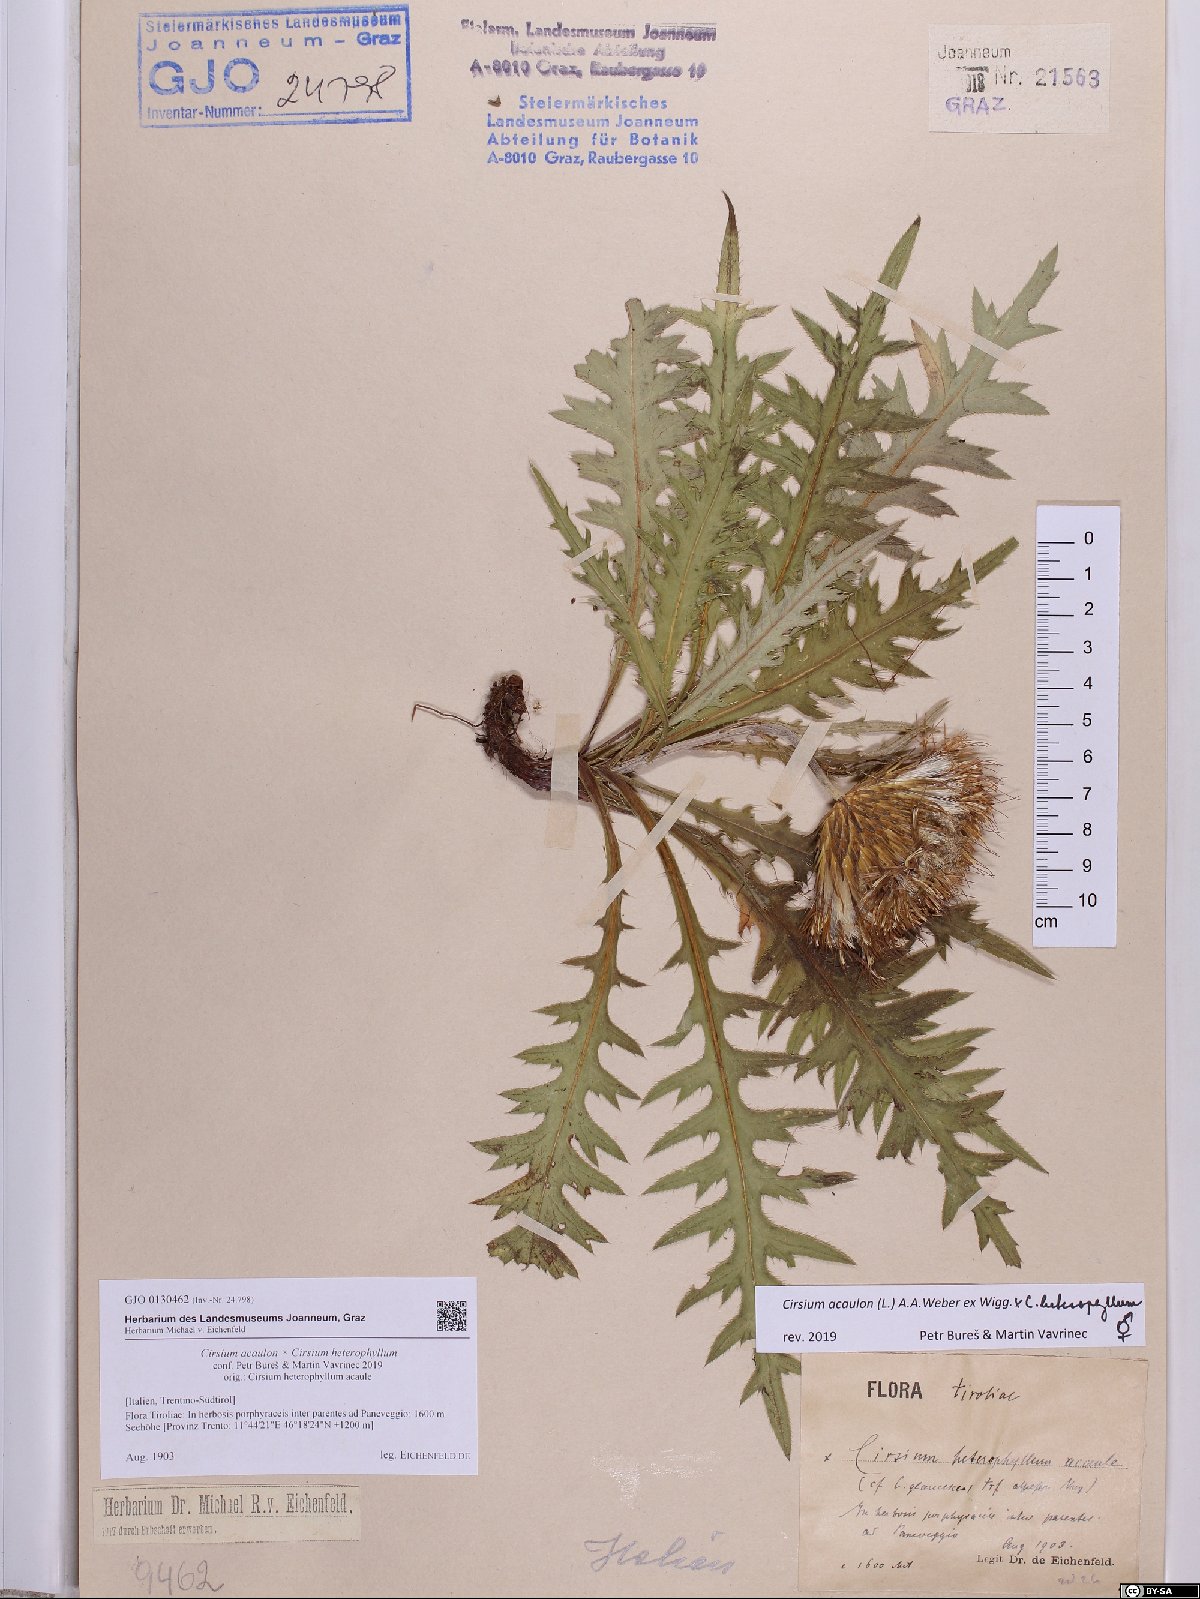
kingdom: Plantae
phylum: Tracheophyta
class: Magnoliopsida
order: Asterales
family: Asteraceae
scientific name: Asteraceae
